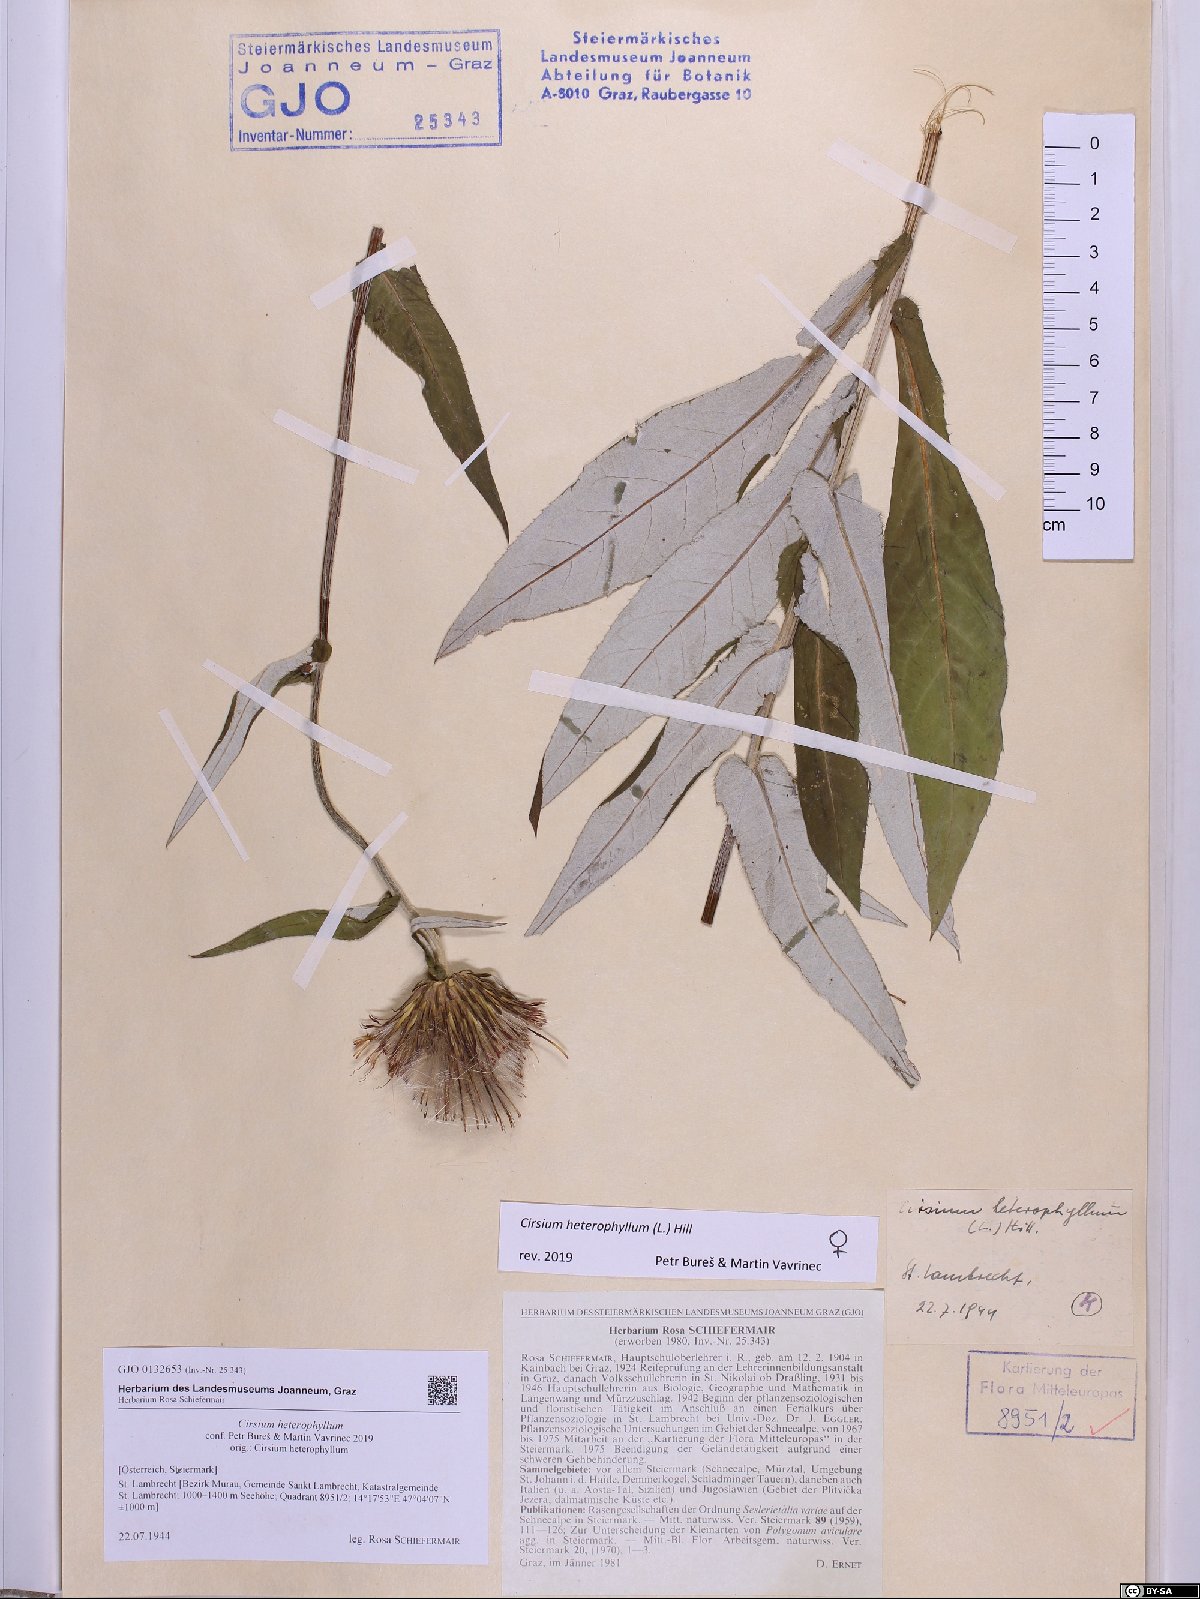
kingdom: Plantae
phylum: Tracheophyta
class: Magnoliopsida
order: Asterales
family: Asteraceae
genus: Cirsium
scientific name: Cirsium heterophyllum
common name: Melancholy thistle
